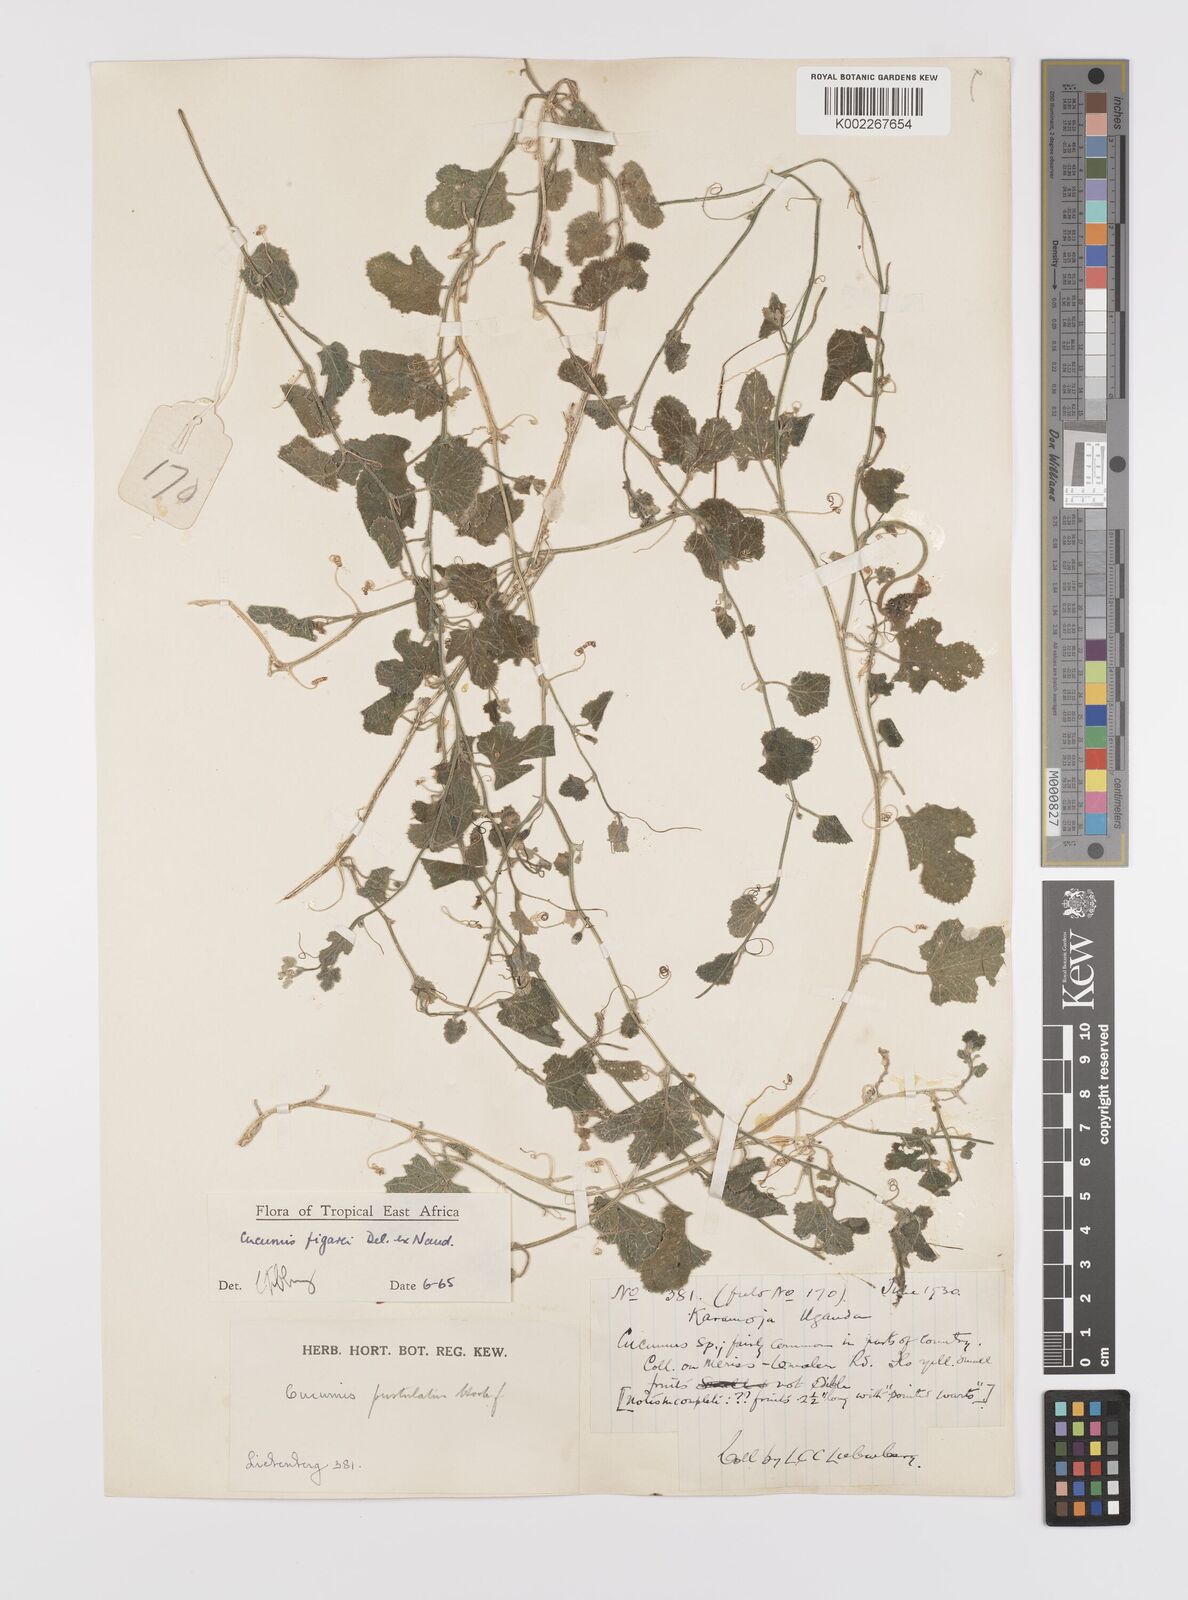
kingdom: Plantae
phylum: Tracheophyta
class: Magnoliopsida
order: Cucurbitales
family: Cucurbitaceae
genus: Cucumis
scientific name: Cucumis pustulatus
